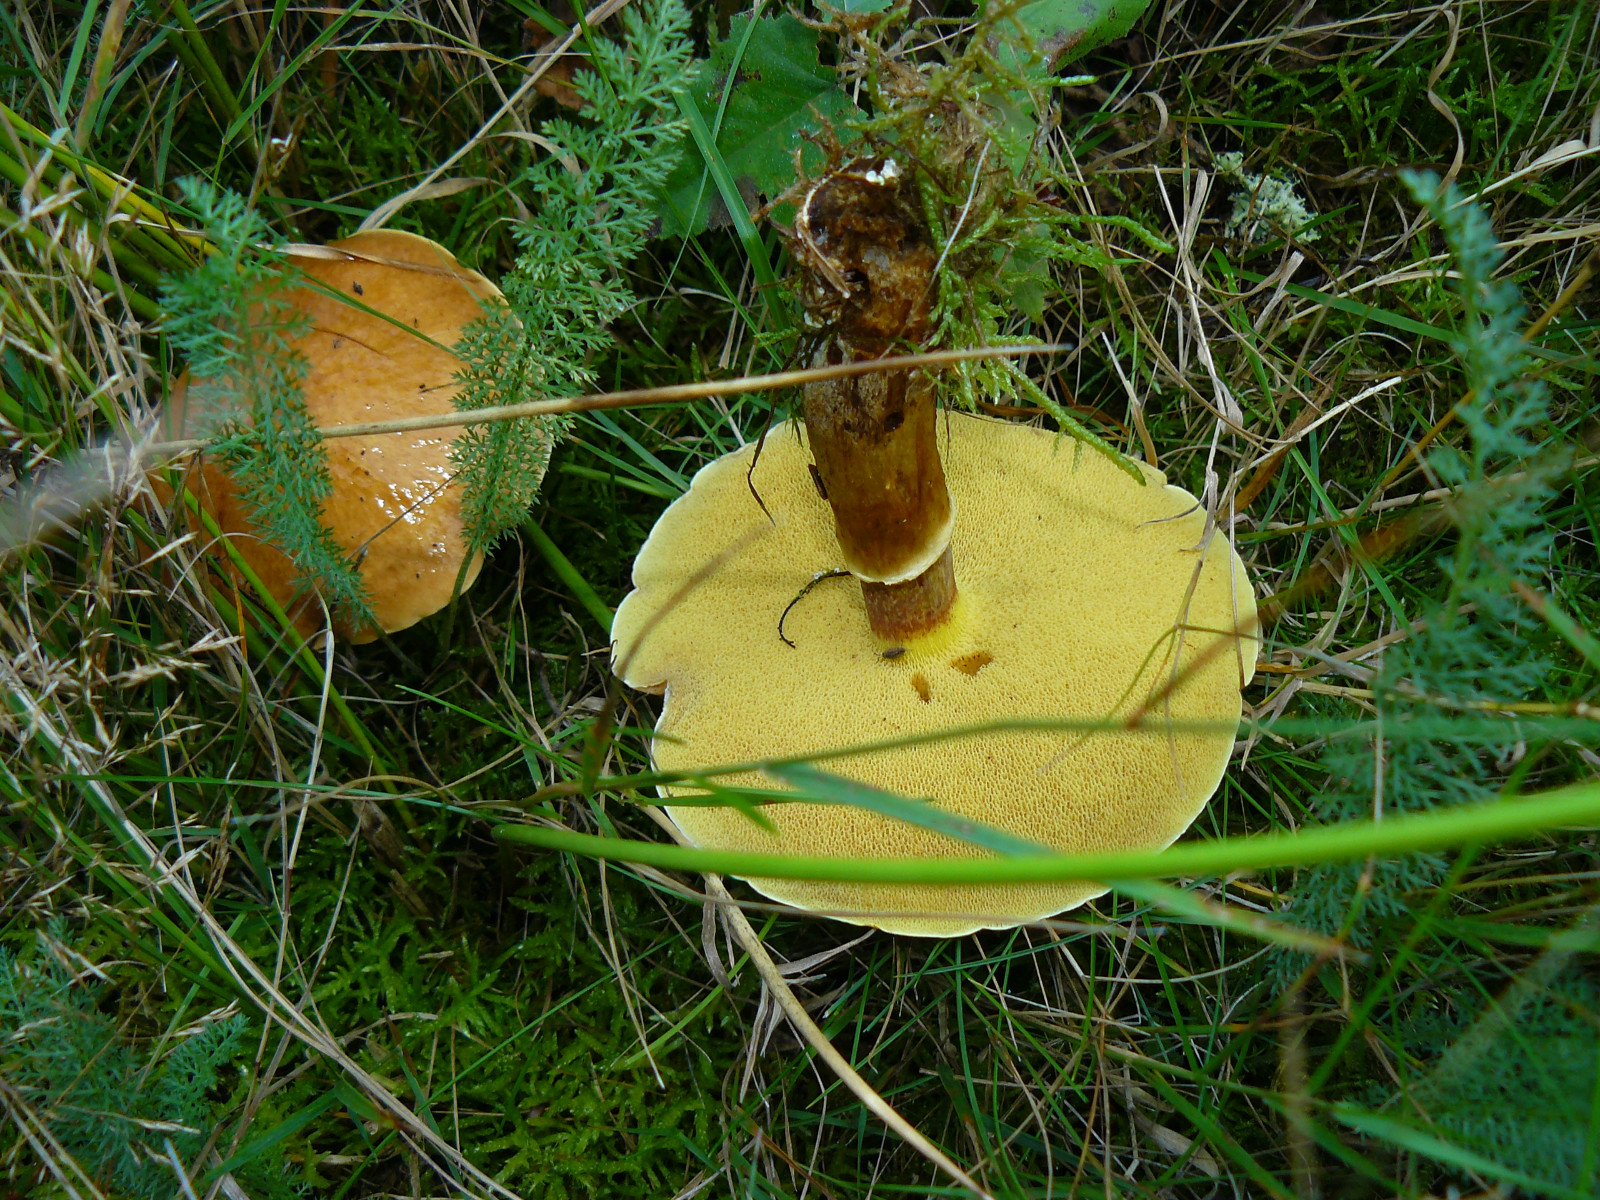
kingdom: Fungi
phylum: Basidiomycota
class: Agaricomycetes
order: Boletales
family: Suillaceae
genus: Suillus
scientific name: Suillus grevillei
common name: lærke-slimrørhat
